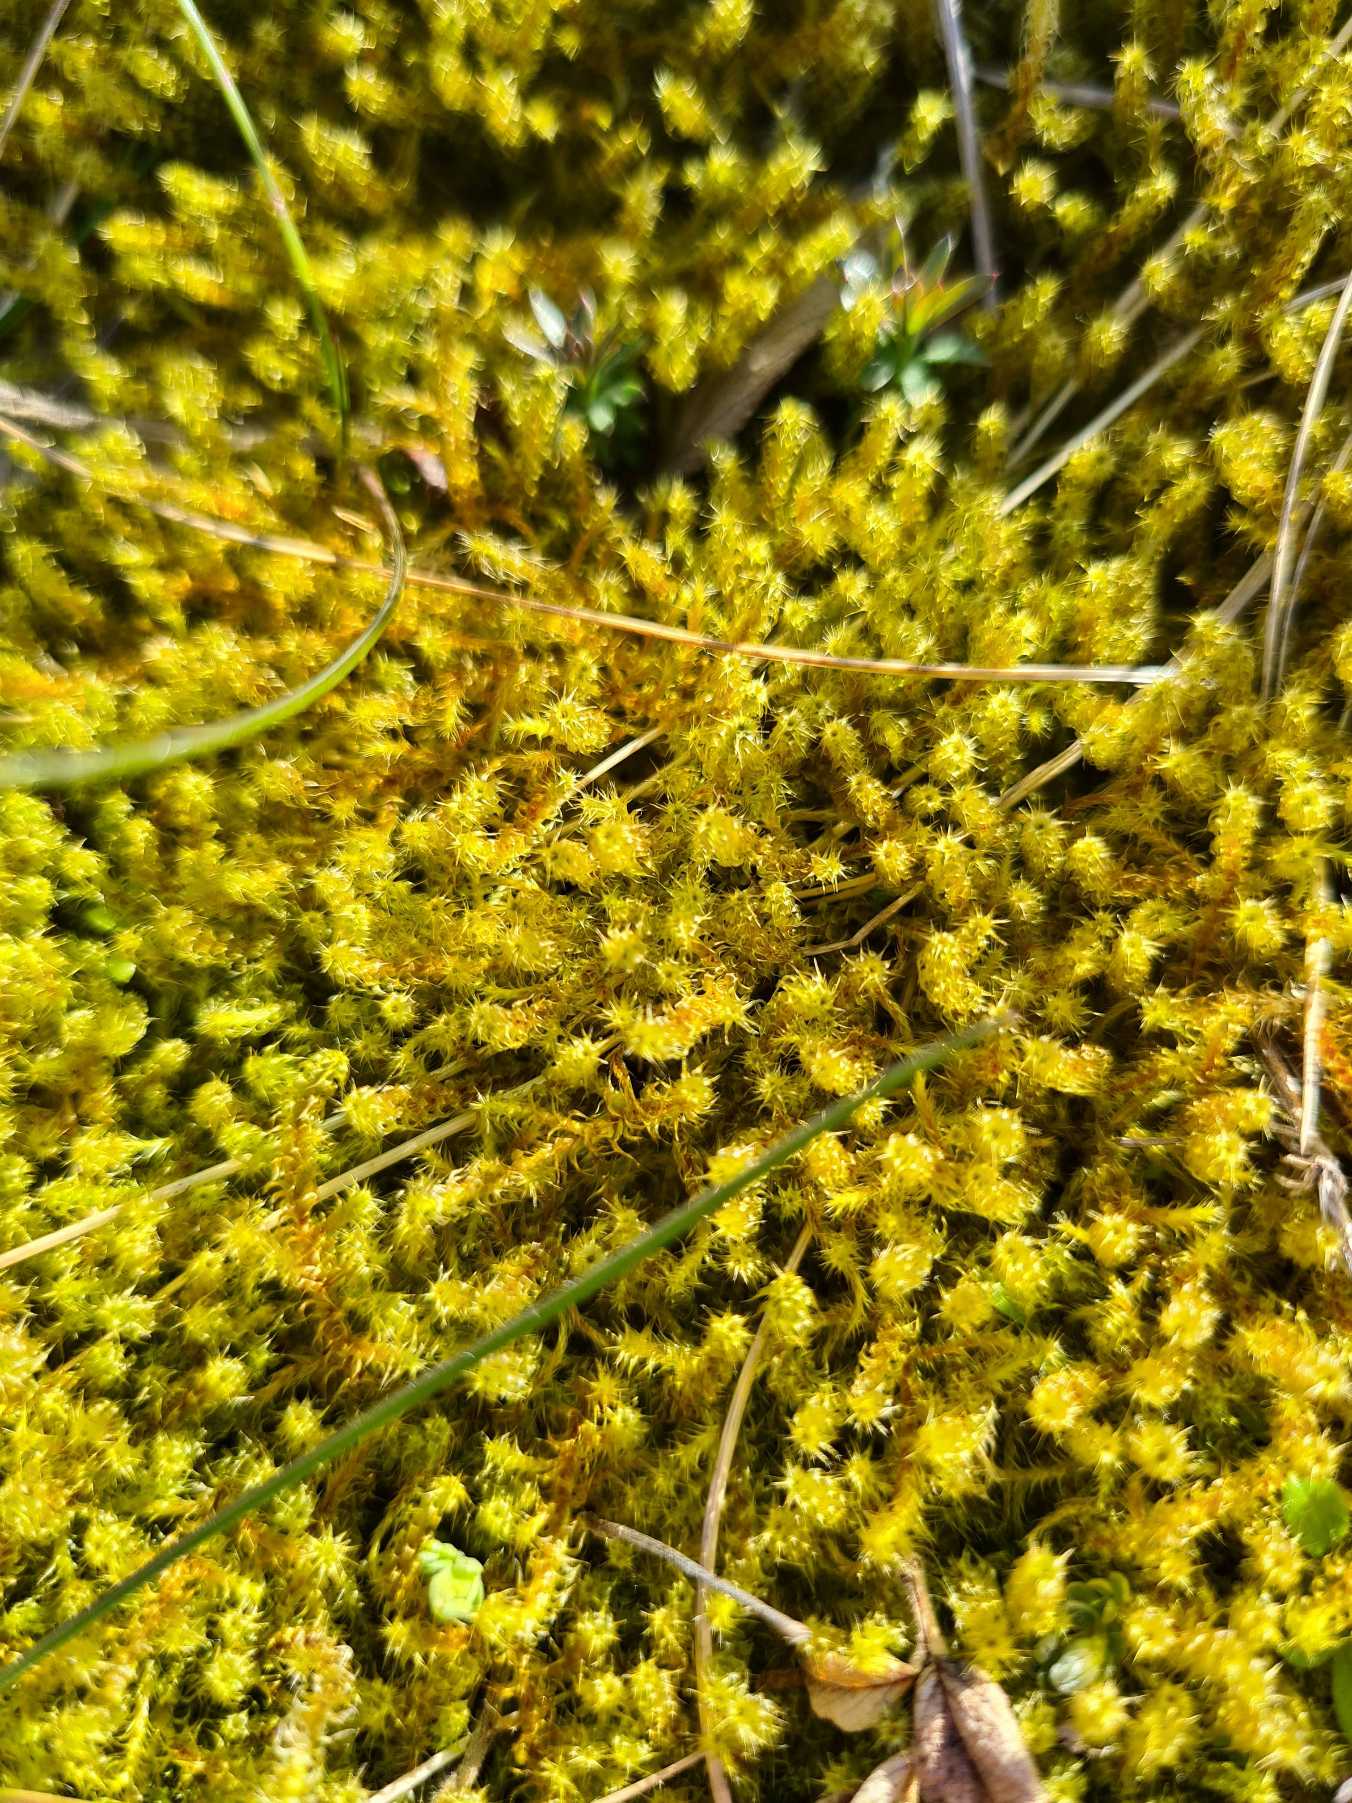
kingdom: Plantae
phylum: Bryophyta
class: Bryopsida
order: Hypnales
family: Hylocomiaceae
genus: Rhytidiadelphus
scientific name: Rhytidiadelphus squarrosus
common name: Plæne-kransemos
